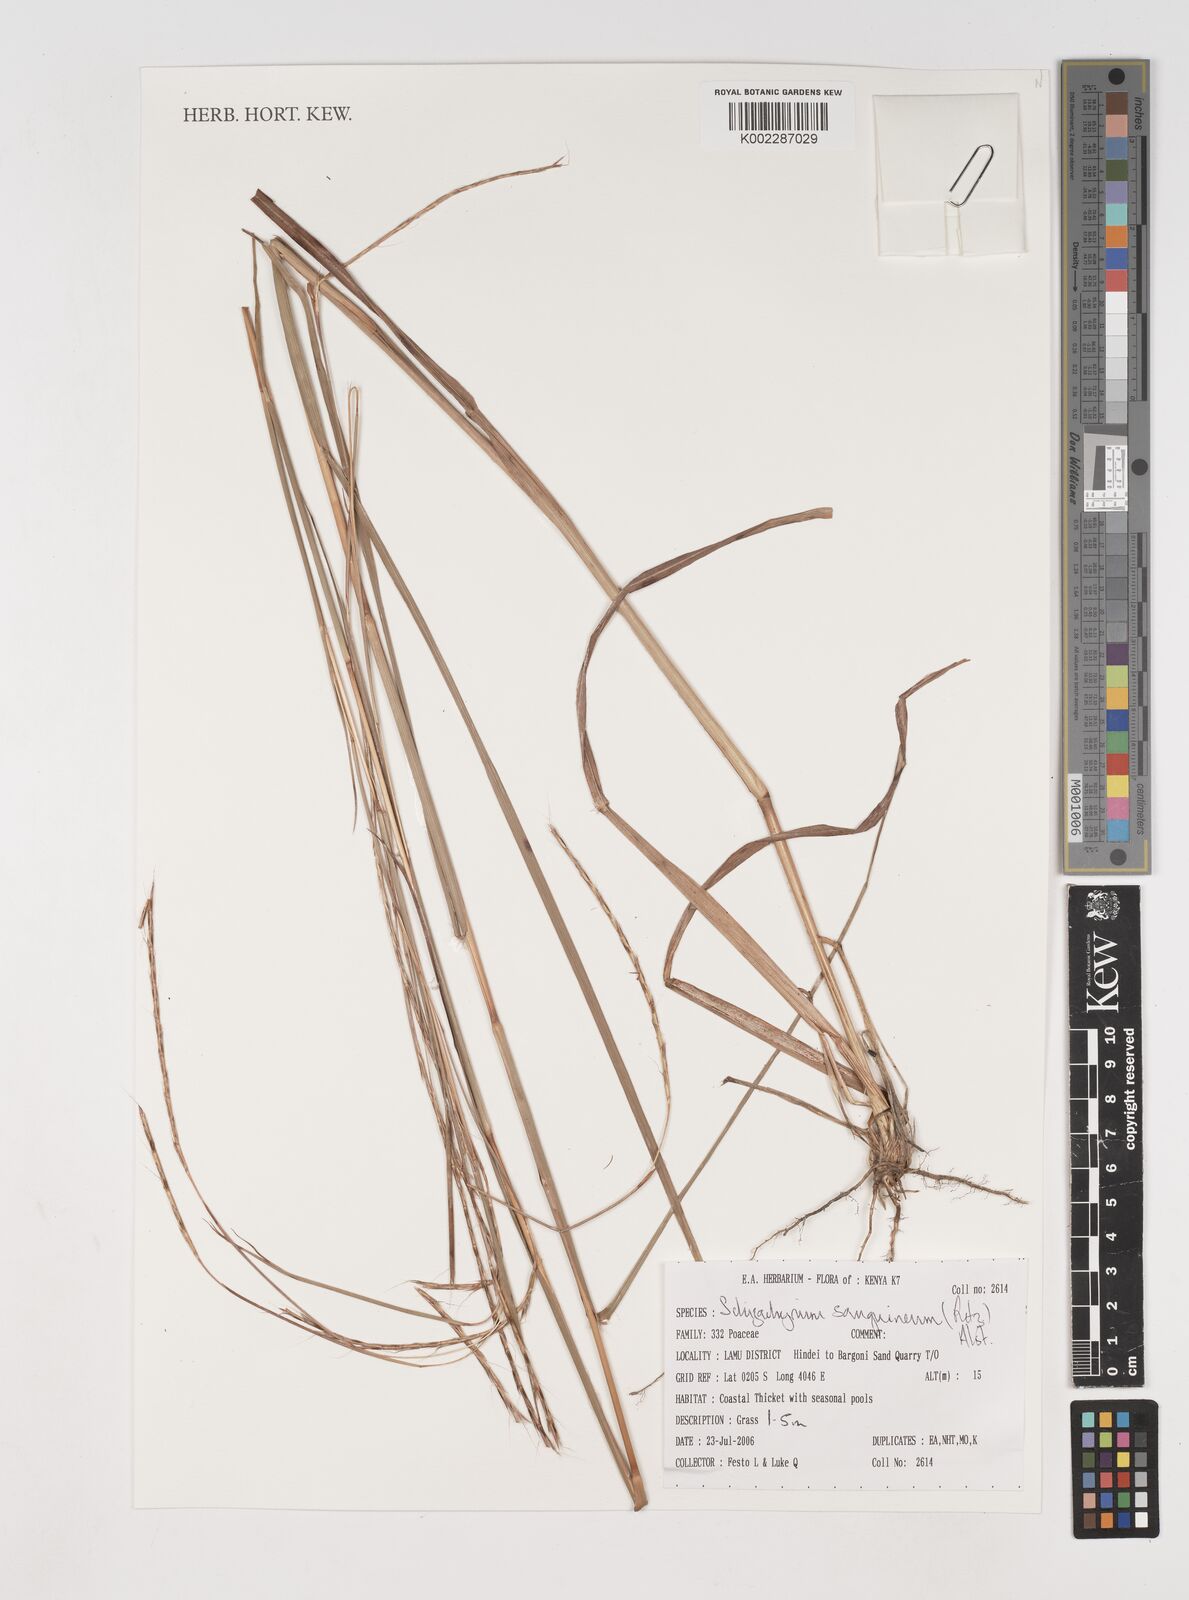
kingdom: Plantae
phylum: Tracheophyta
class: Liliopsida
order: Poales
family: Poaceae
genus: Schizachyrium
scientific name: Schizachyrium sanguineum
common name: Crimson bluestem
